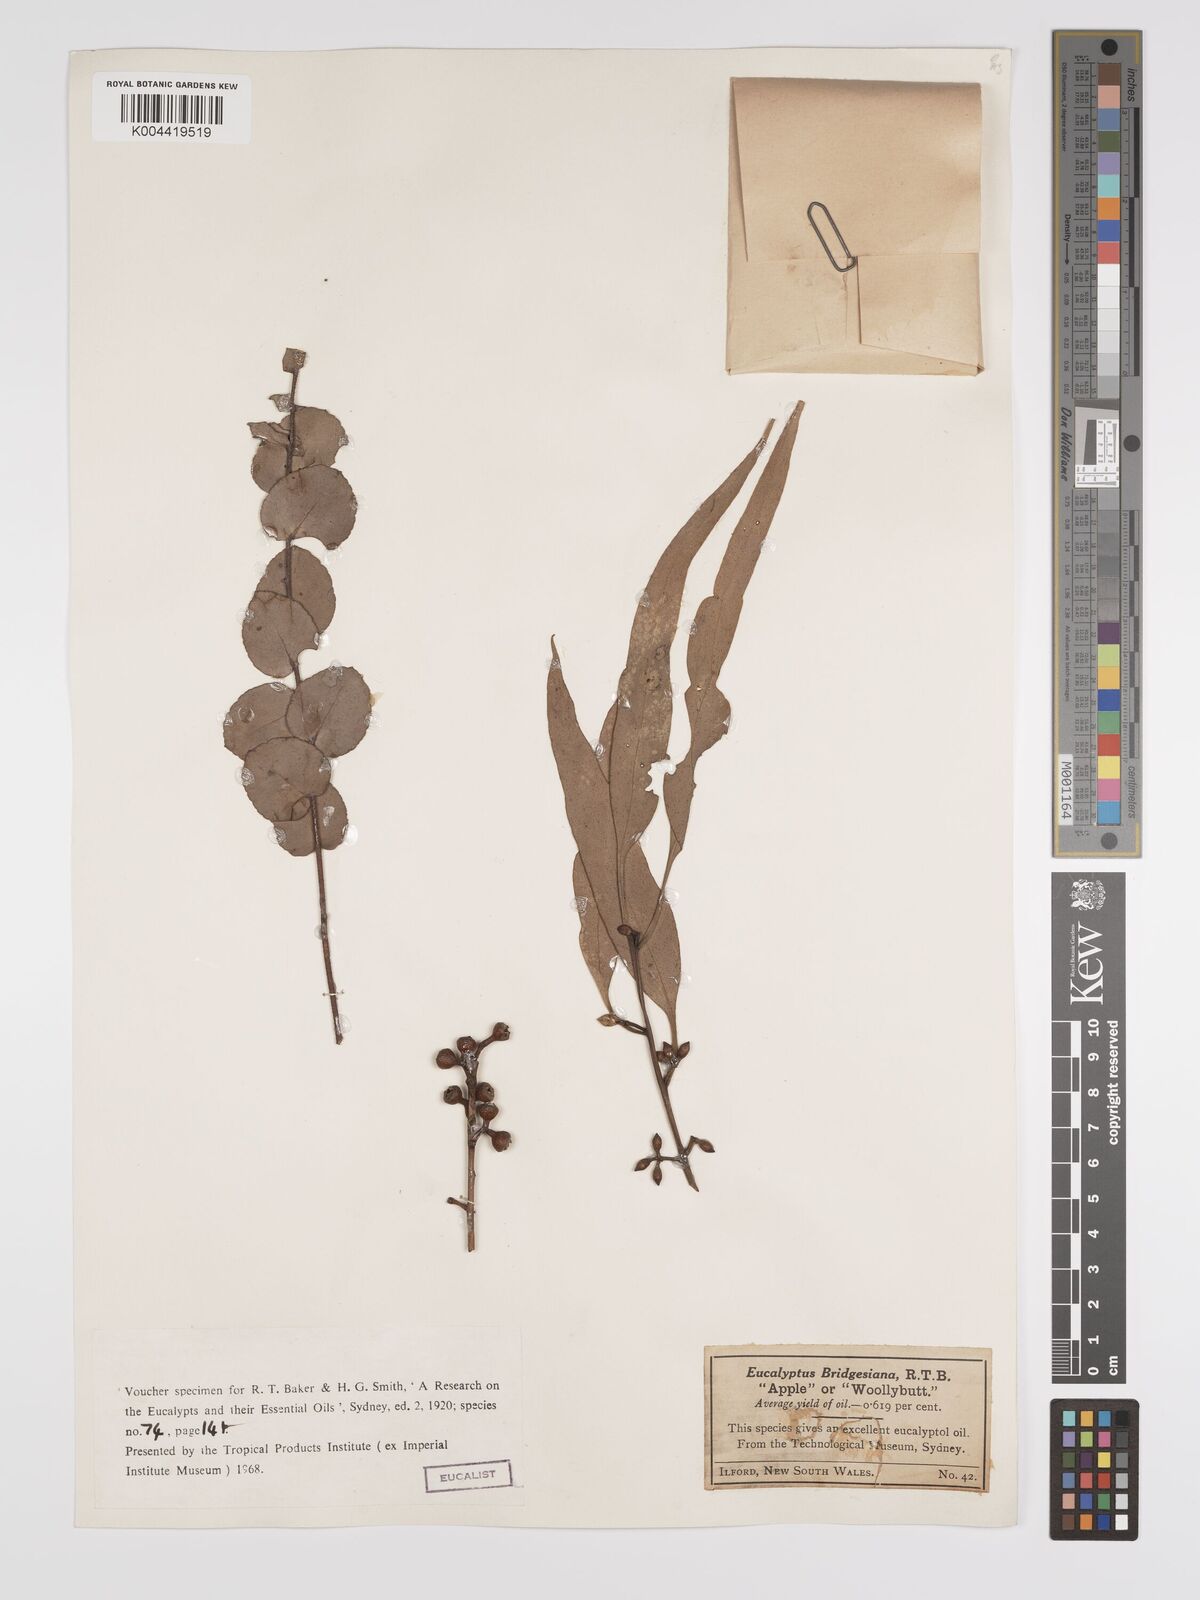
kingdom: Plantae
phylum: Tracheophyta
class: Magnoliopsida
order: Myrtales
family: Myrtaceae
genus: Eucalyptus
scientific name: Eucalyptus bridgesiana
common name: Applebox
